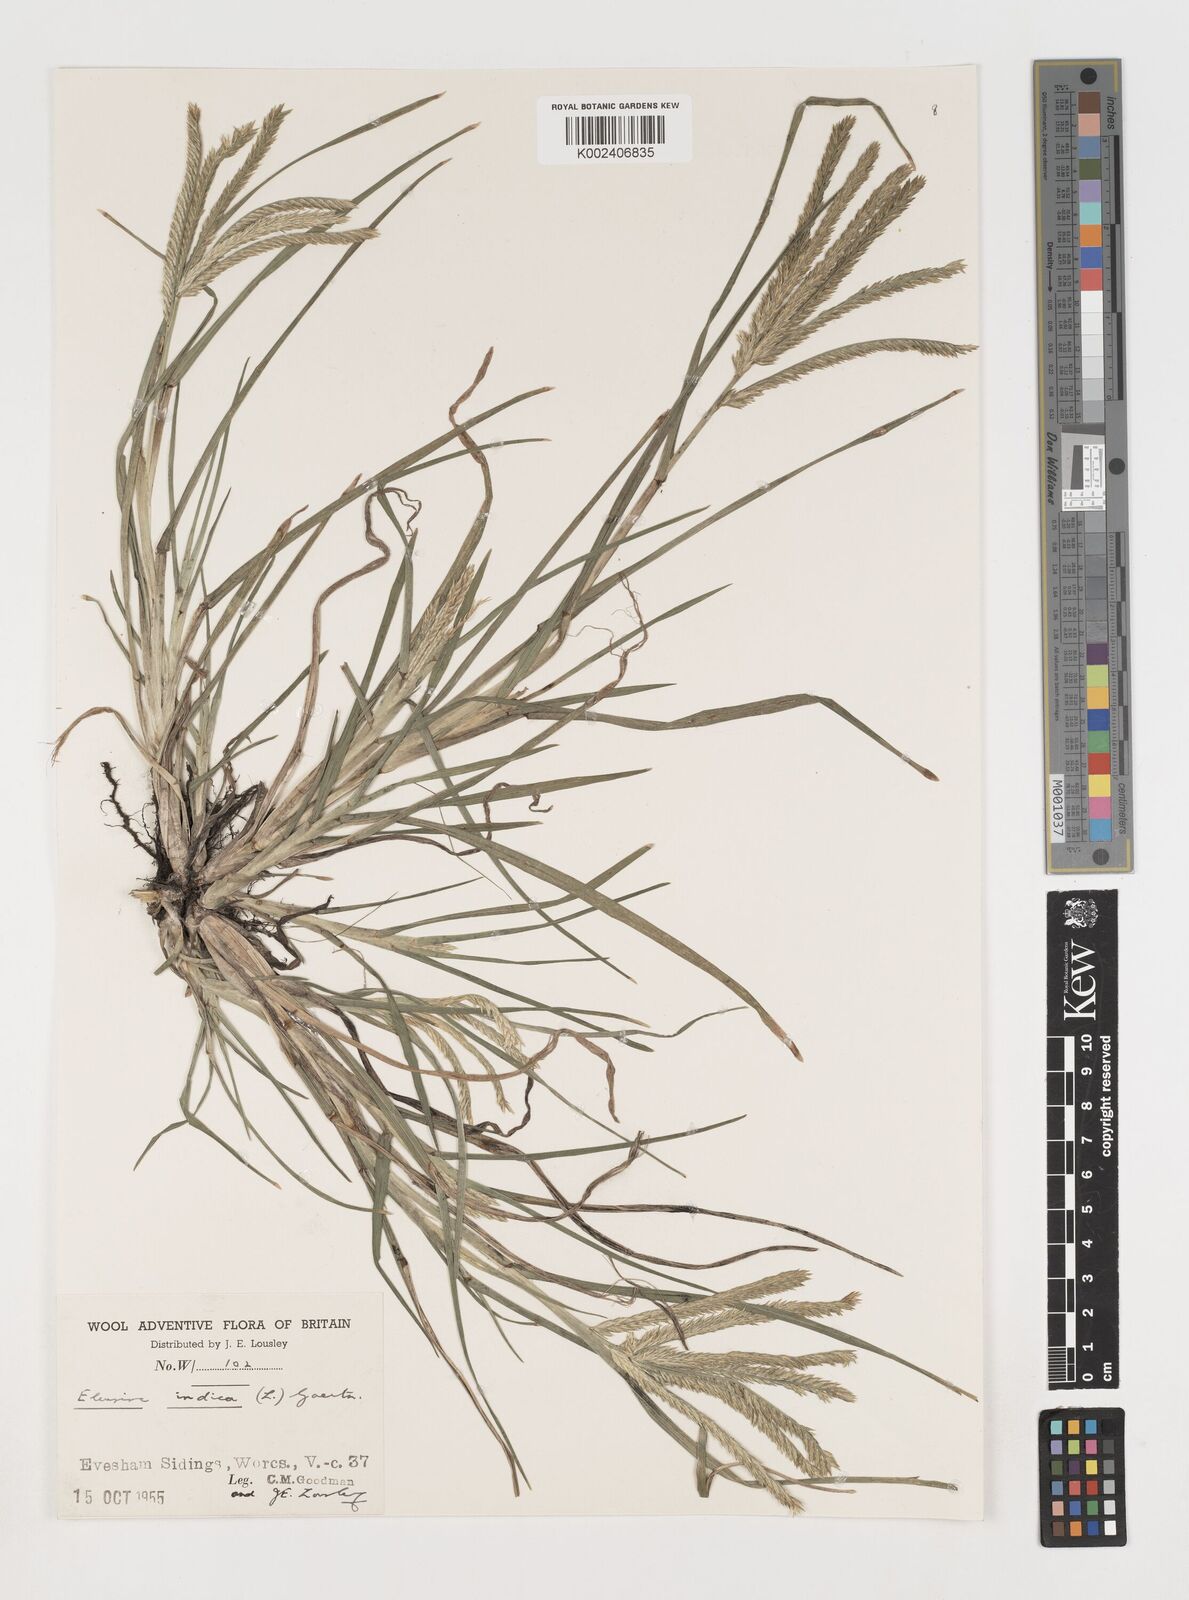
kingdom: Plantae
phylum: Tracheophyta
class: Liliopsida
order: Poales
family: Poaceae
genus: Eleusine
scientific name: Eleusine africana
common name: Wild african finger millet
